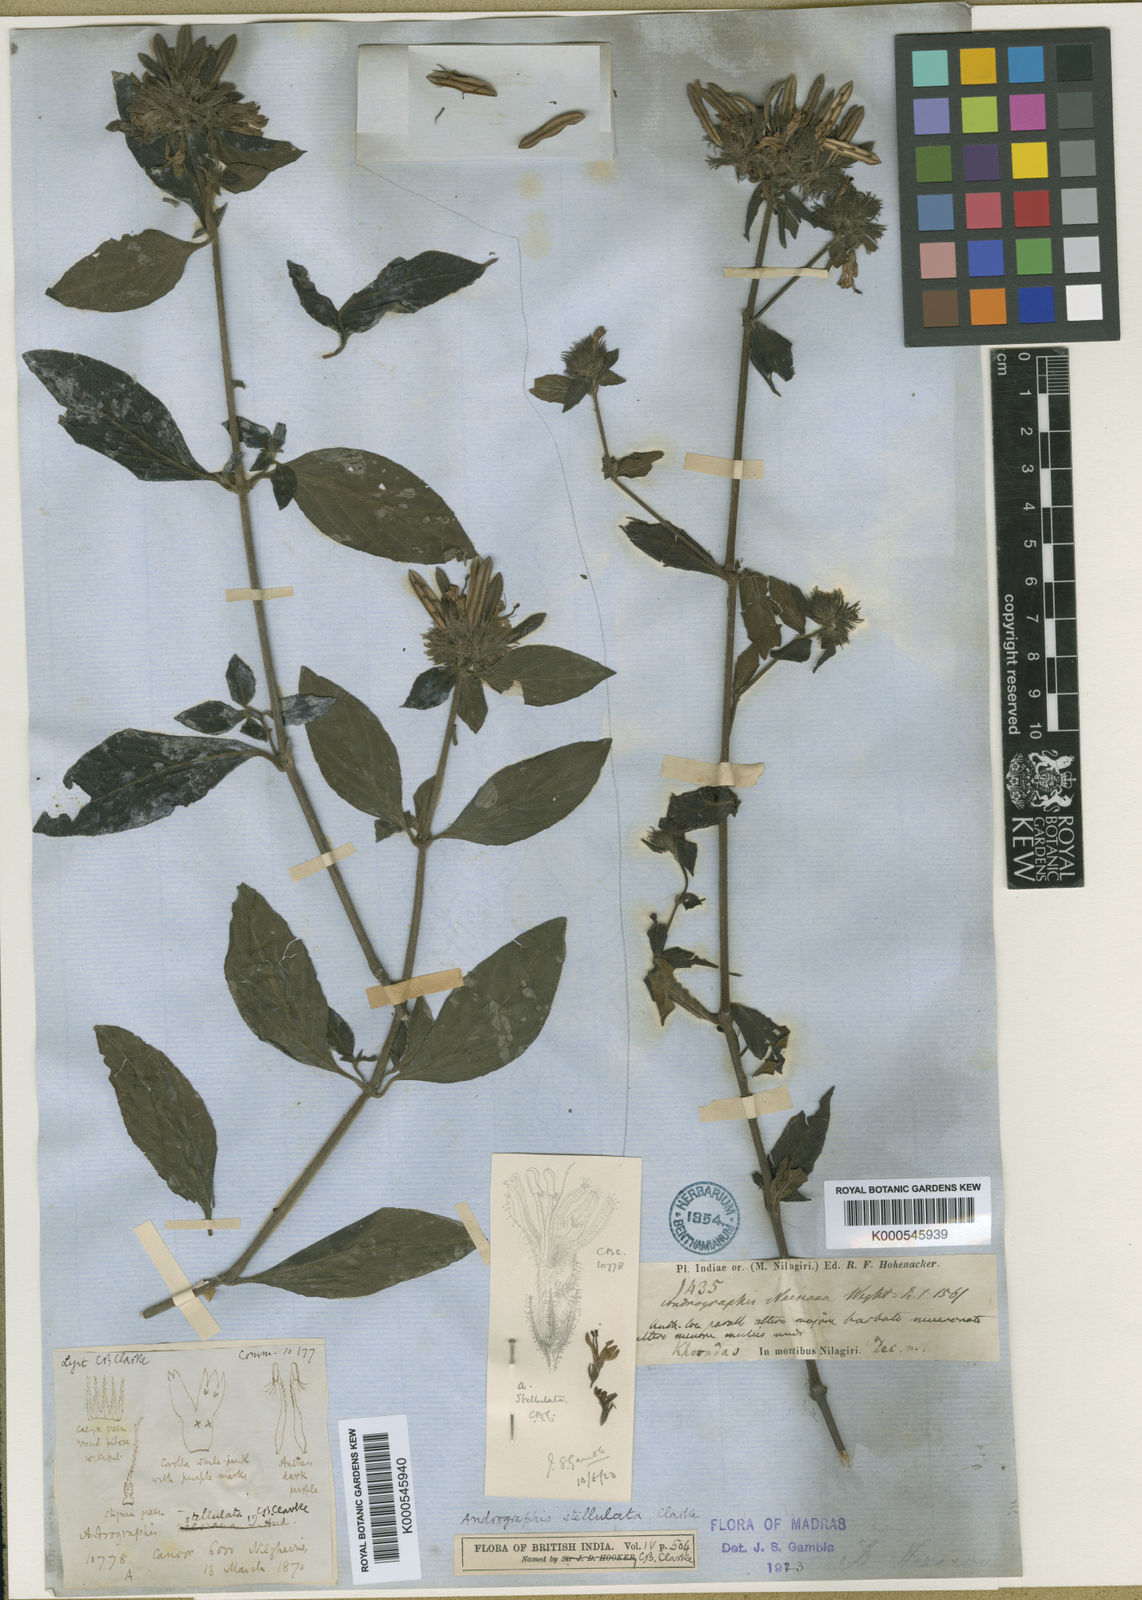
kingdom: Plantae
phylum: Tracheophyta
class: Magnoliopsida
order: Lamiales
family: Acanthaceae
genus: Andrographis
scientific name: Andrographis stellulata
